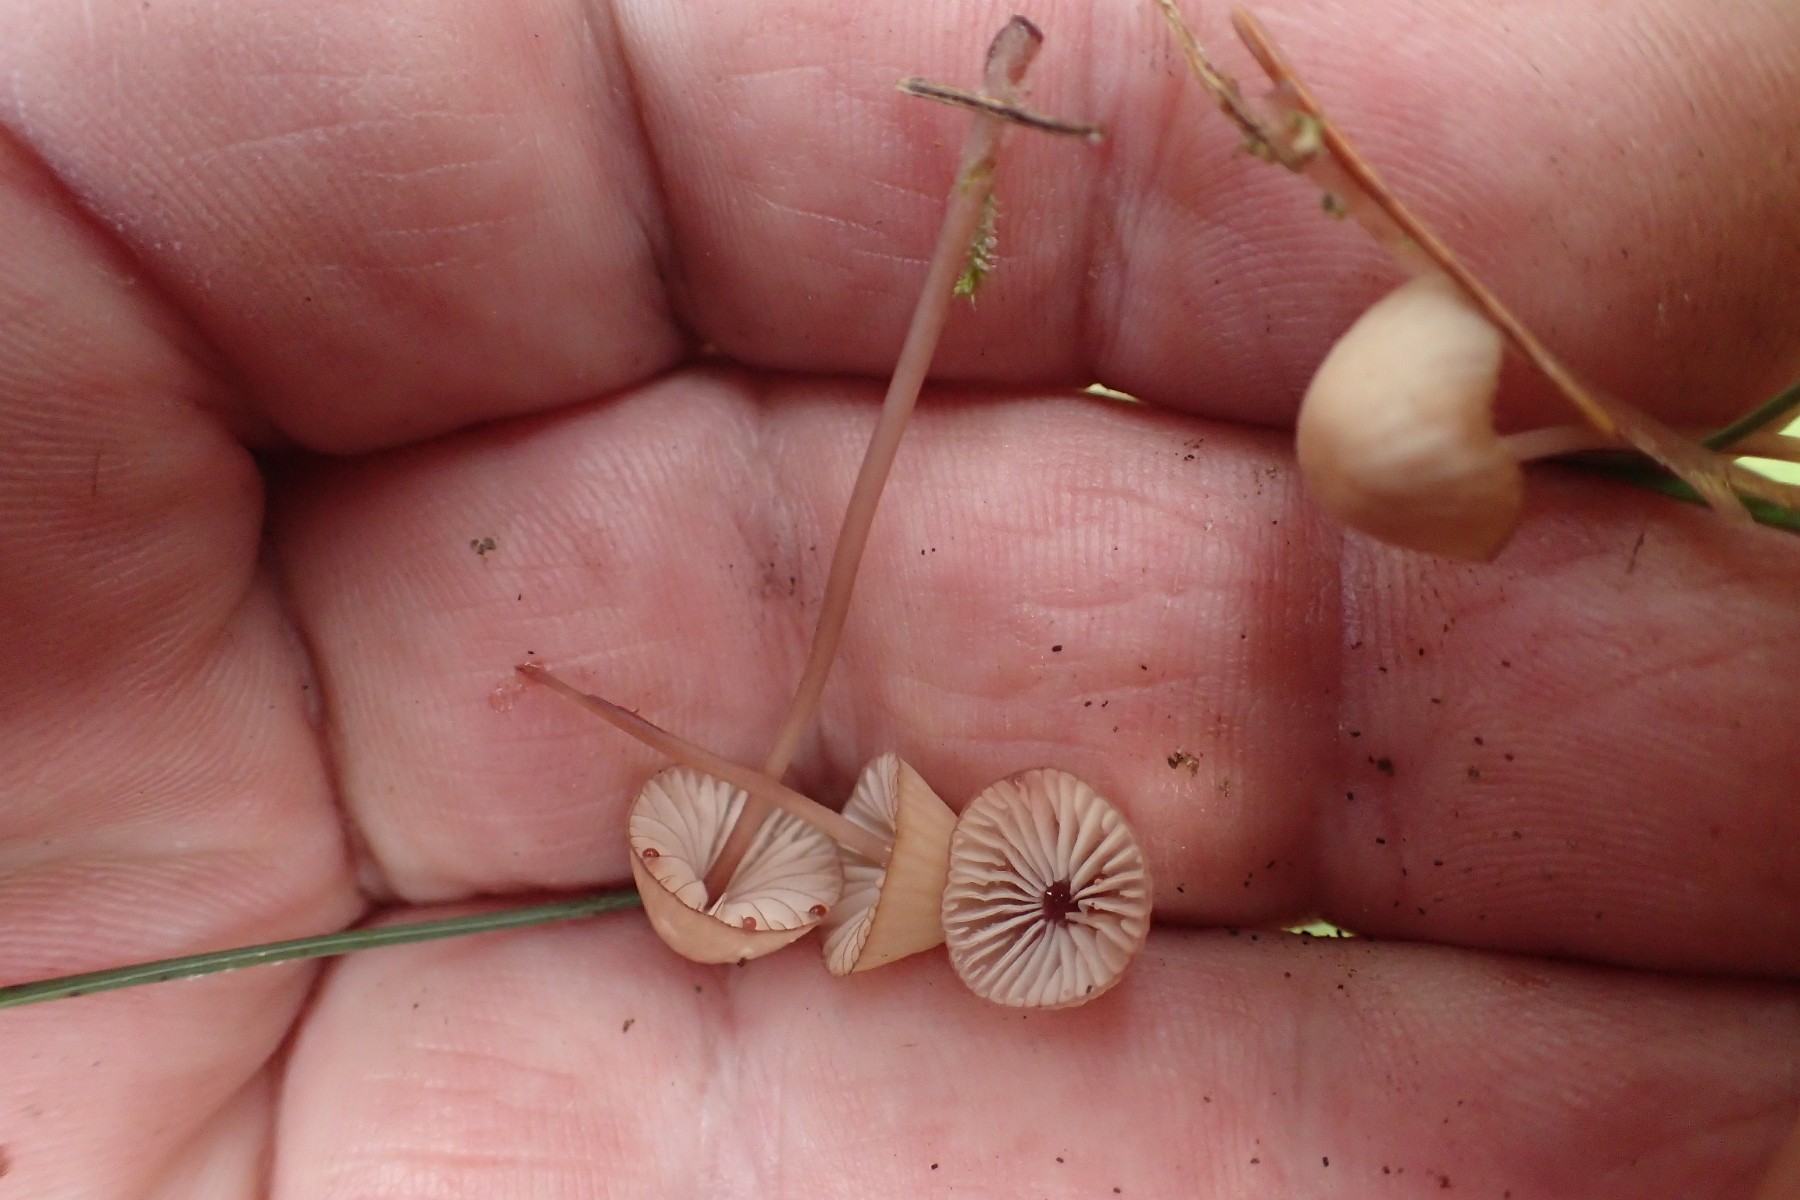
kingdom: Fungi
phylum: Basidiomycota
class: Agaricomycetes
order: Agaricales
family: Mycenaceae
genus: Mycena
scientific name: Mycena sanguinolenta
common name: rødmælket huesvamp
